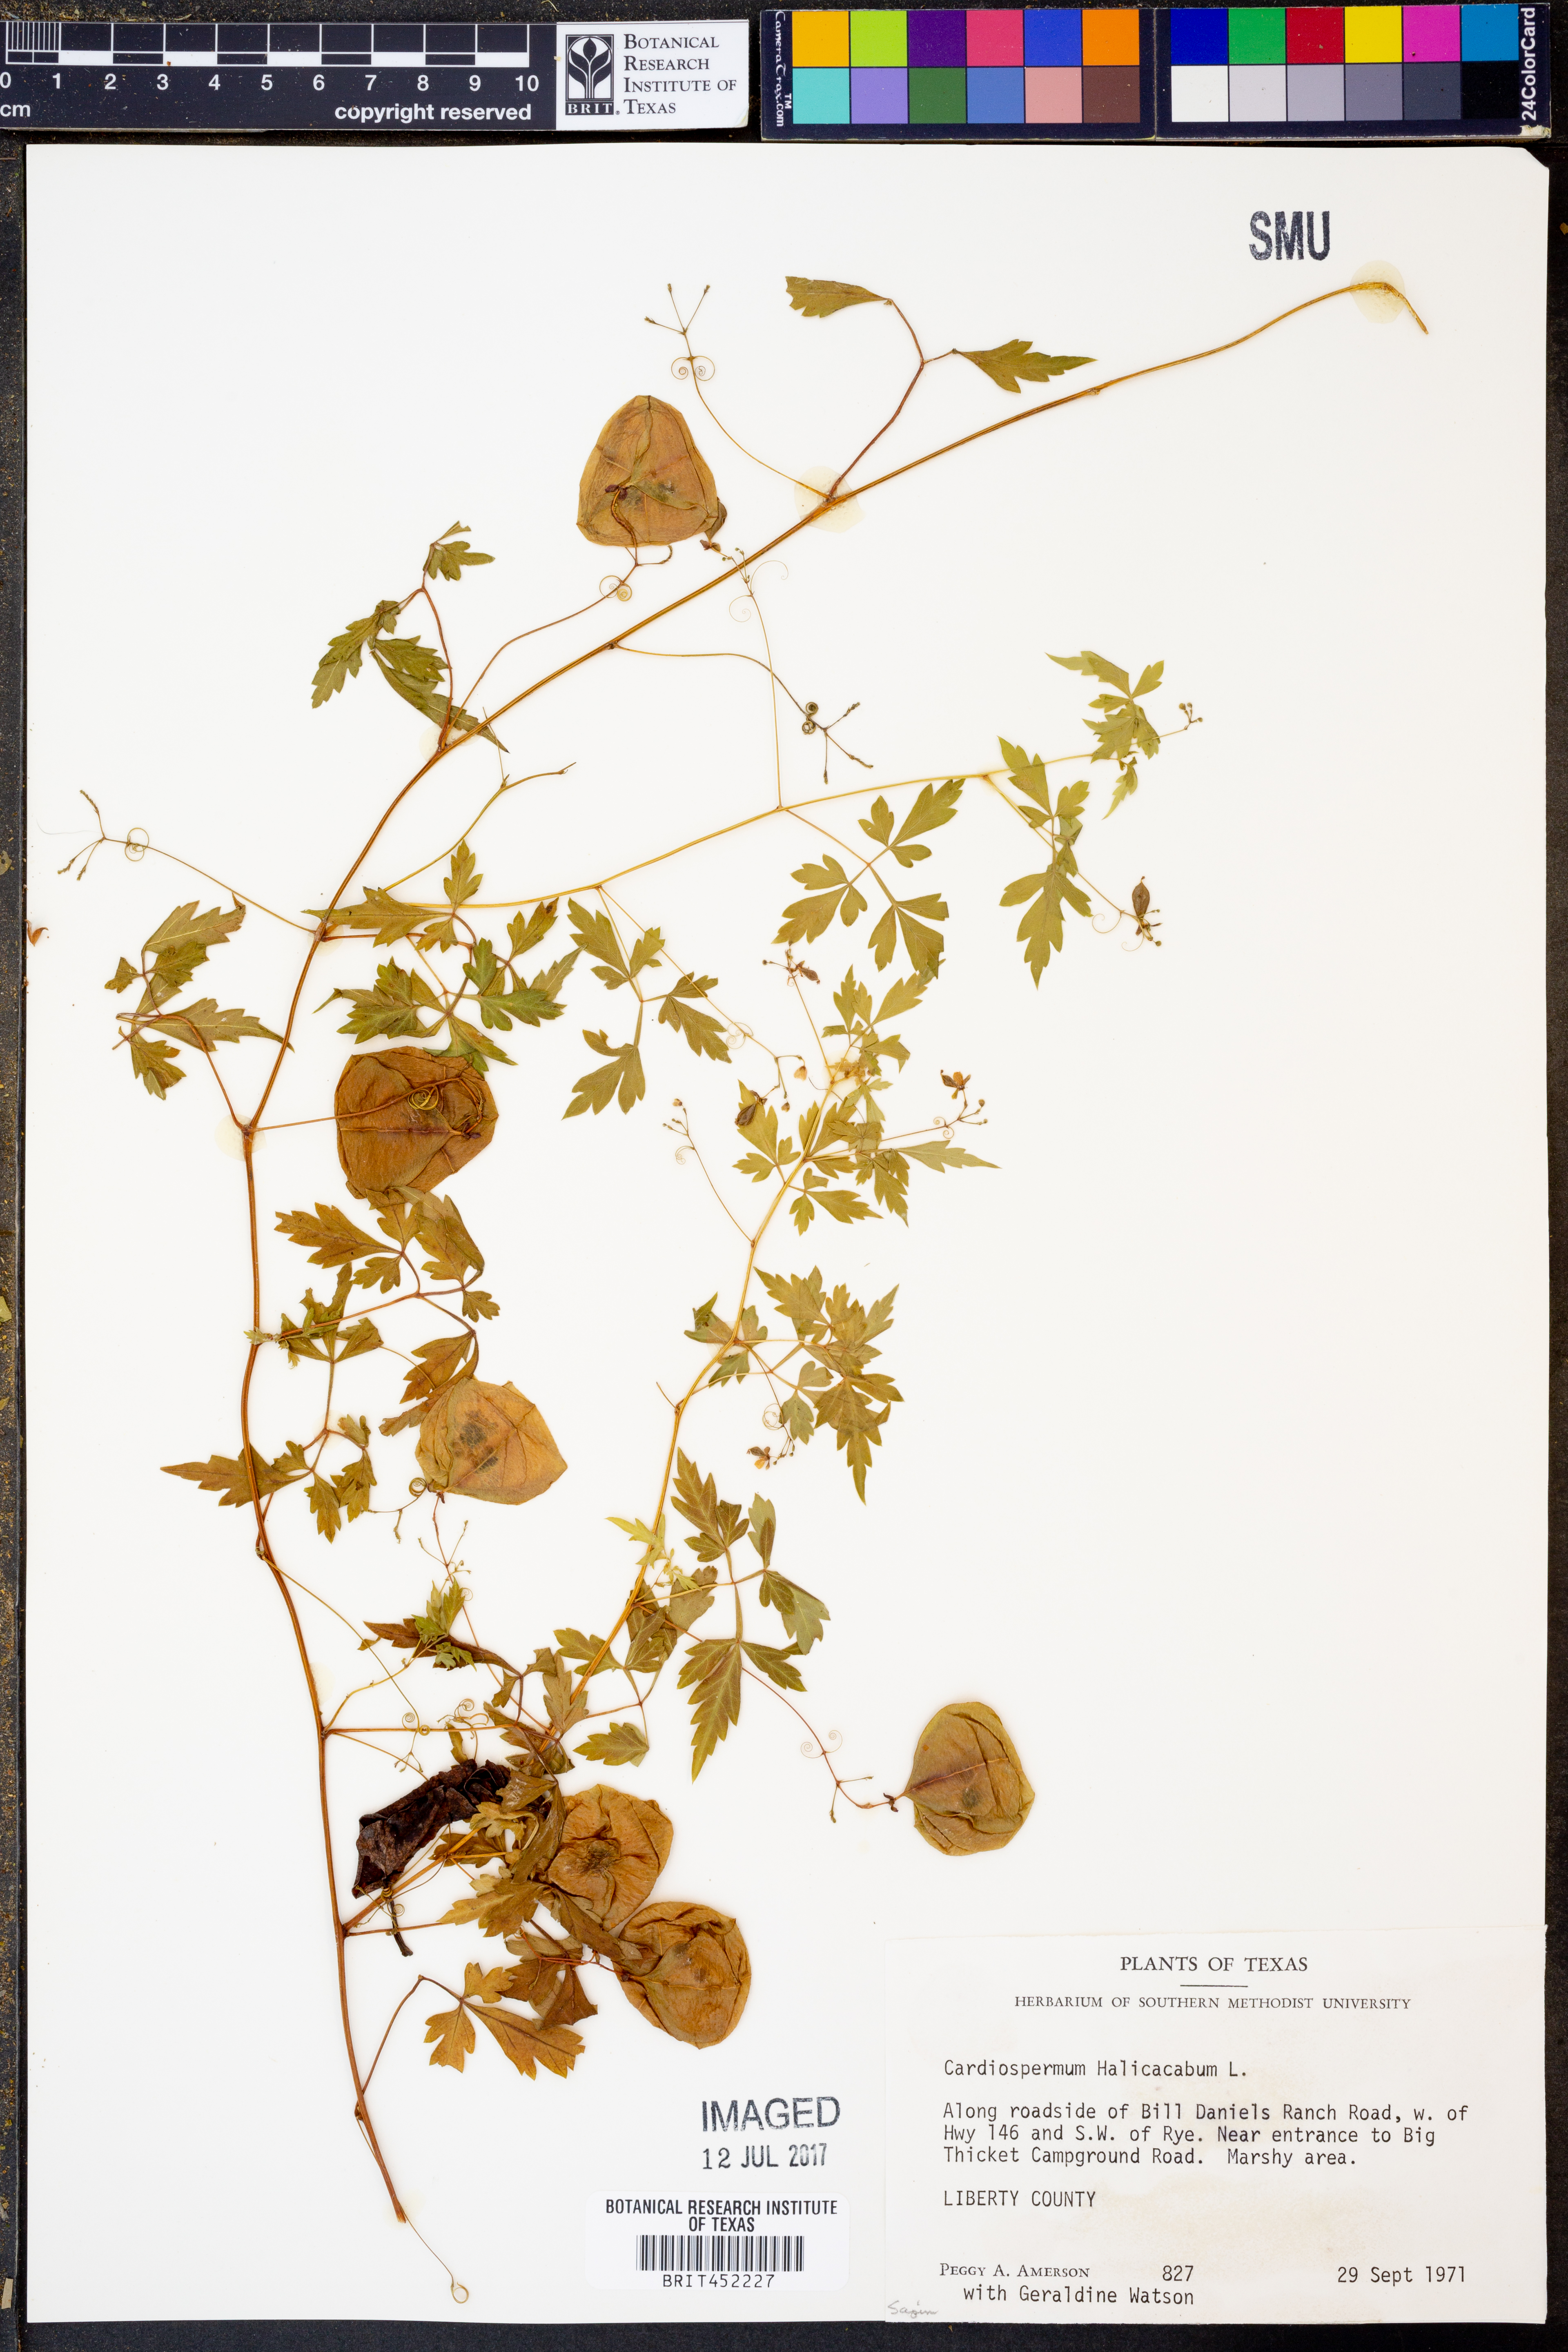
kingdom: Plantae
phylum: Tracheophyta
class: Magnoliopsida
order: Sapindales
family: Sapindaceae
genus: Cardiospermum
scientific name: Cardiospermum halicacabum
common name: Balloon vine
